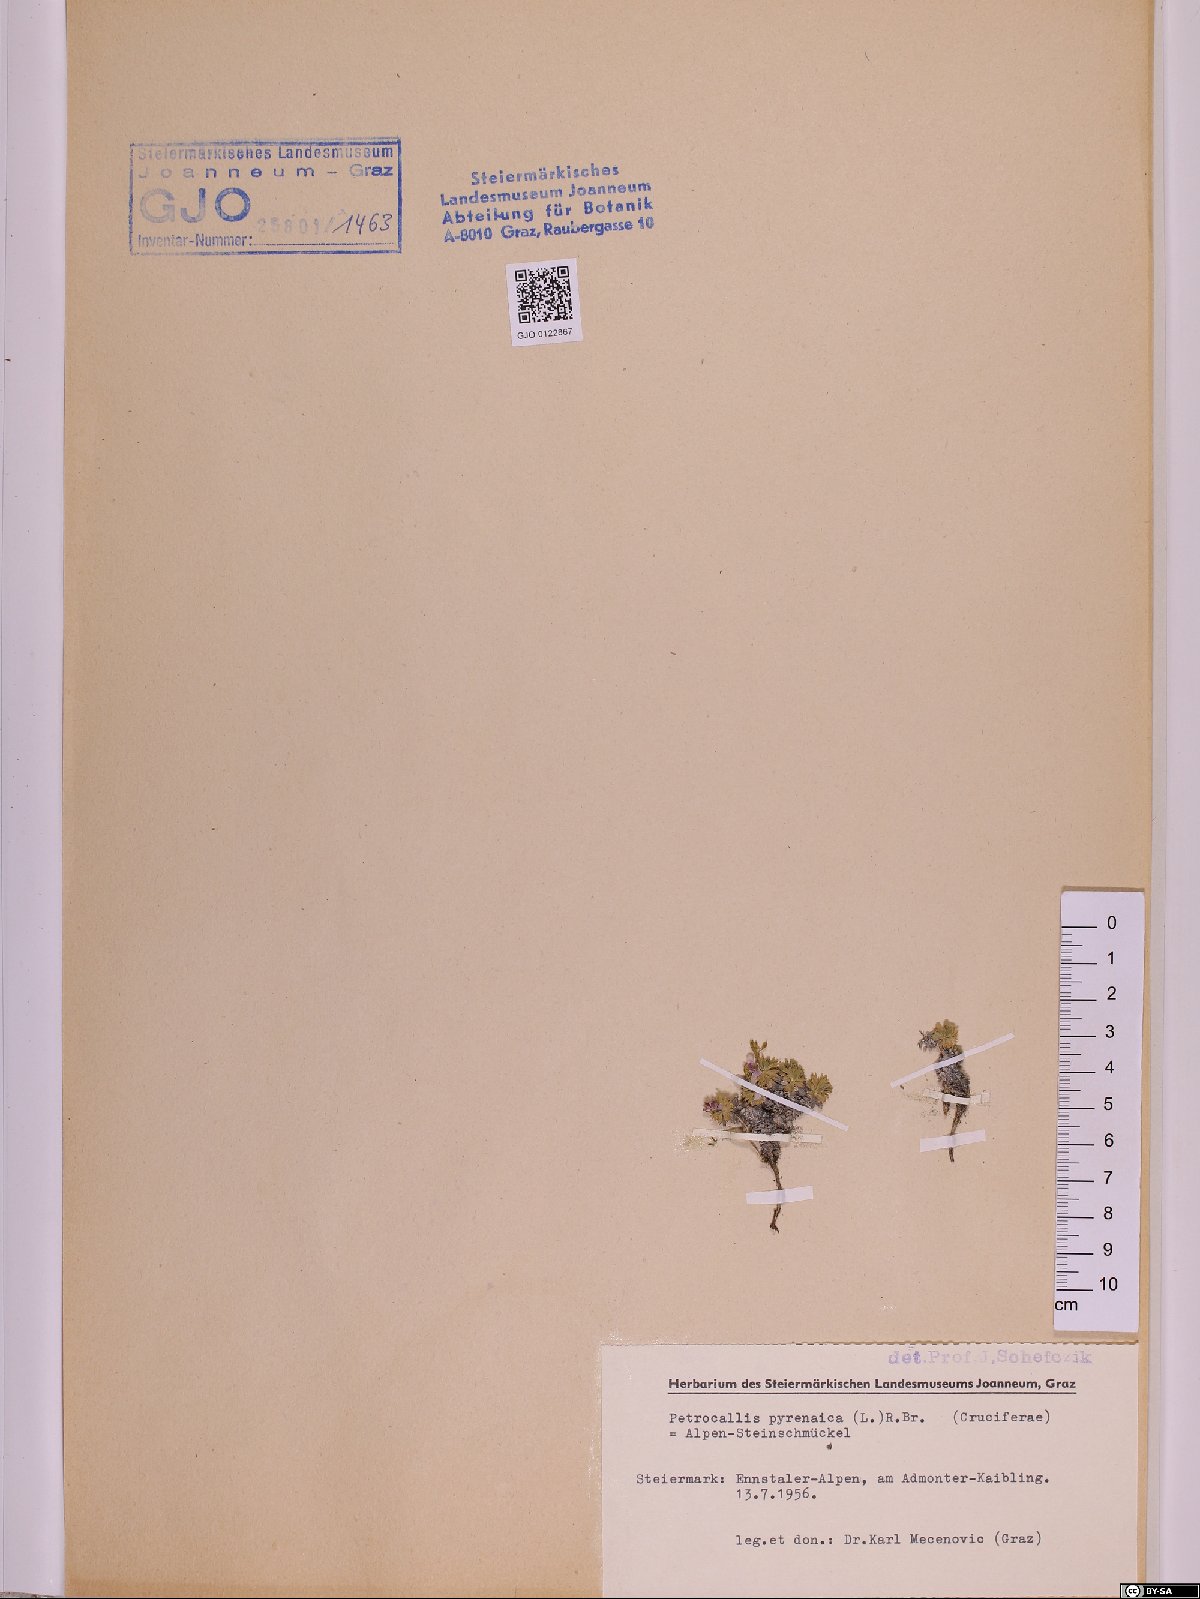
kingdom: Plantae
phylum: Tracheophyta
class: Magnoliopsida
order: Brassicales
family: Brassicaceae
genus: Petrocallis
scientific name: Petrocallis pyrenaica
